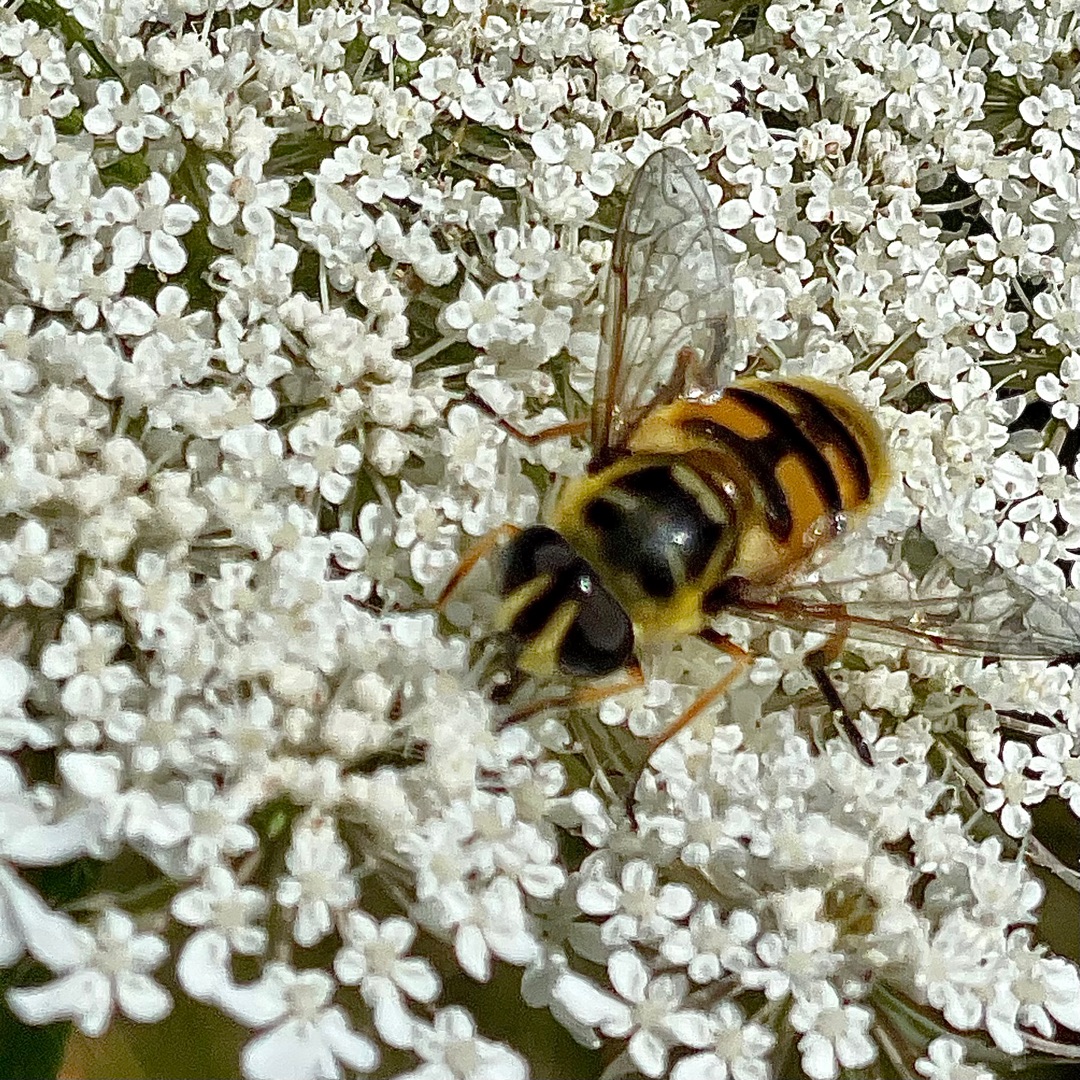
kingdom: Animalia
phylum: Arthropoda
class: Insecta
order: Diptera
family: Syrphidae
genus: Myathropa
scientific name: Myathropa florea
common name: Dødningehoved-svirreflue
